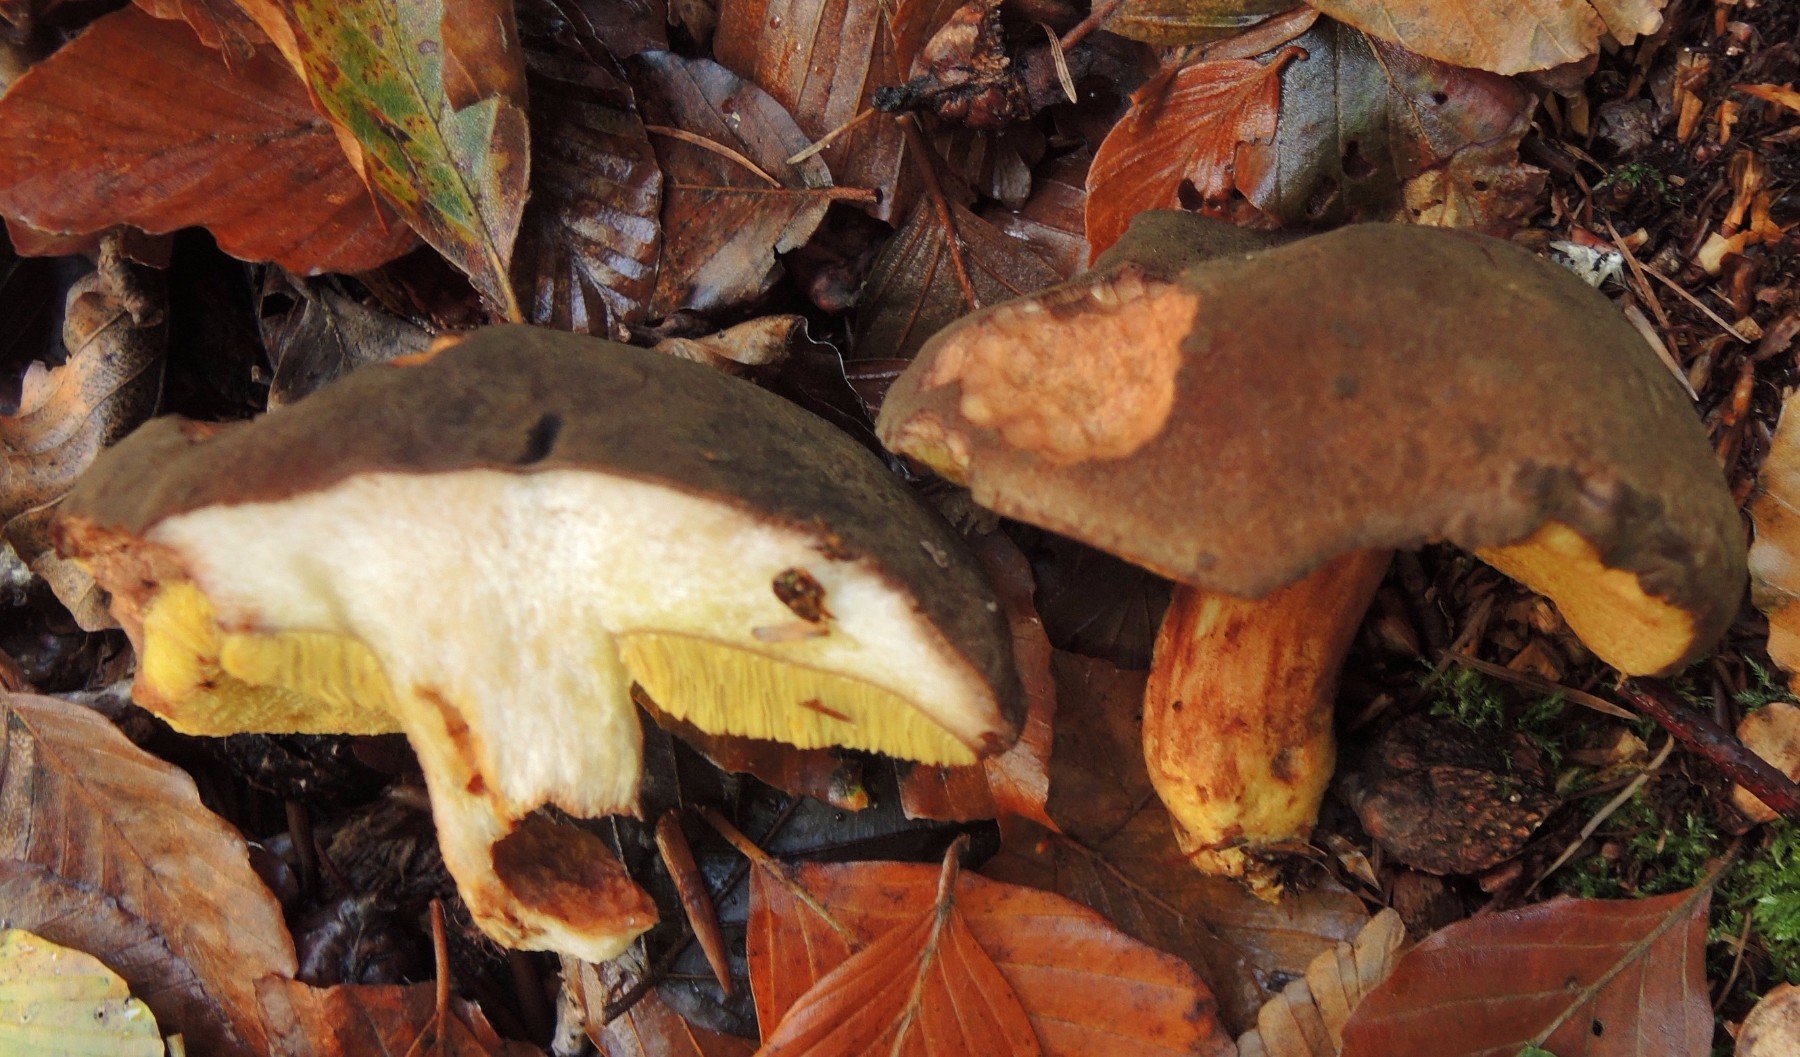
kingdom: Fungi
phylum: Basidiomycota
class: Agaricomycetes
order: Boletales
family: Boletaceae
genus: Xerocomus
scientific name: Xerocomus ferrugineus
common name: vaskeskinds-rørhat
